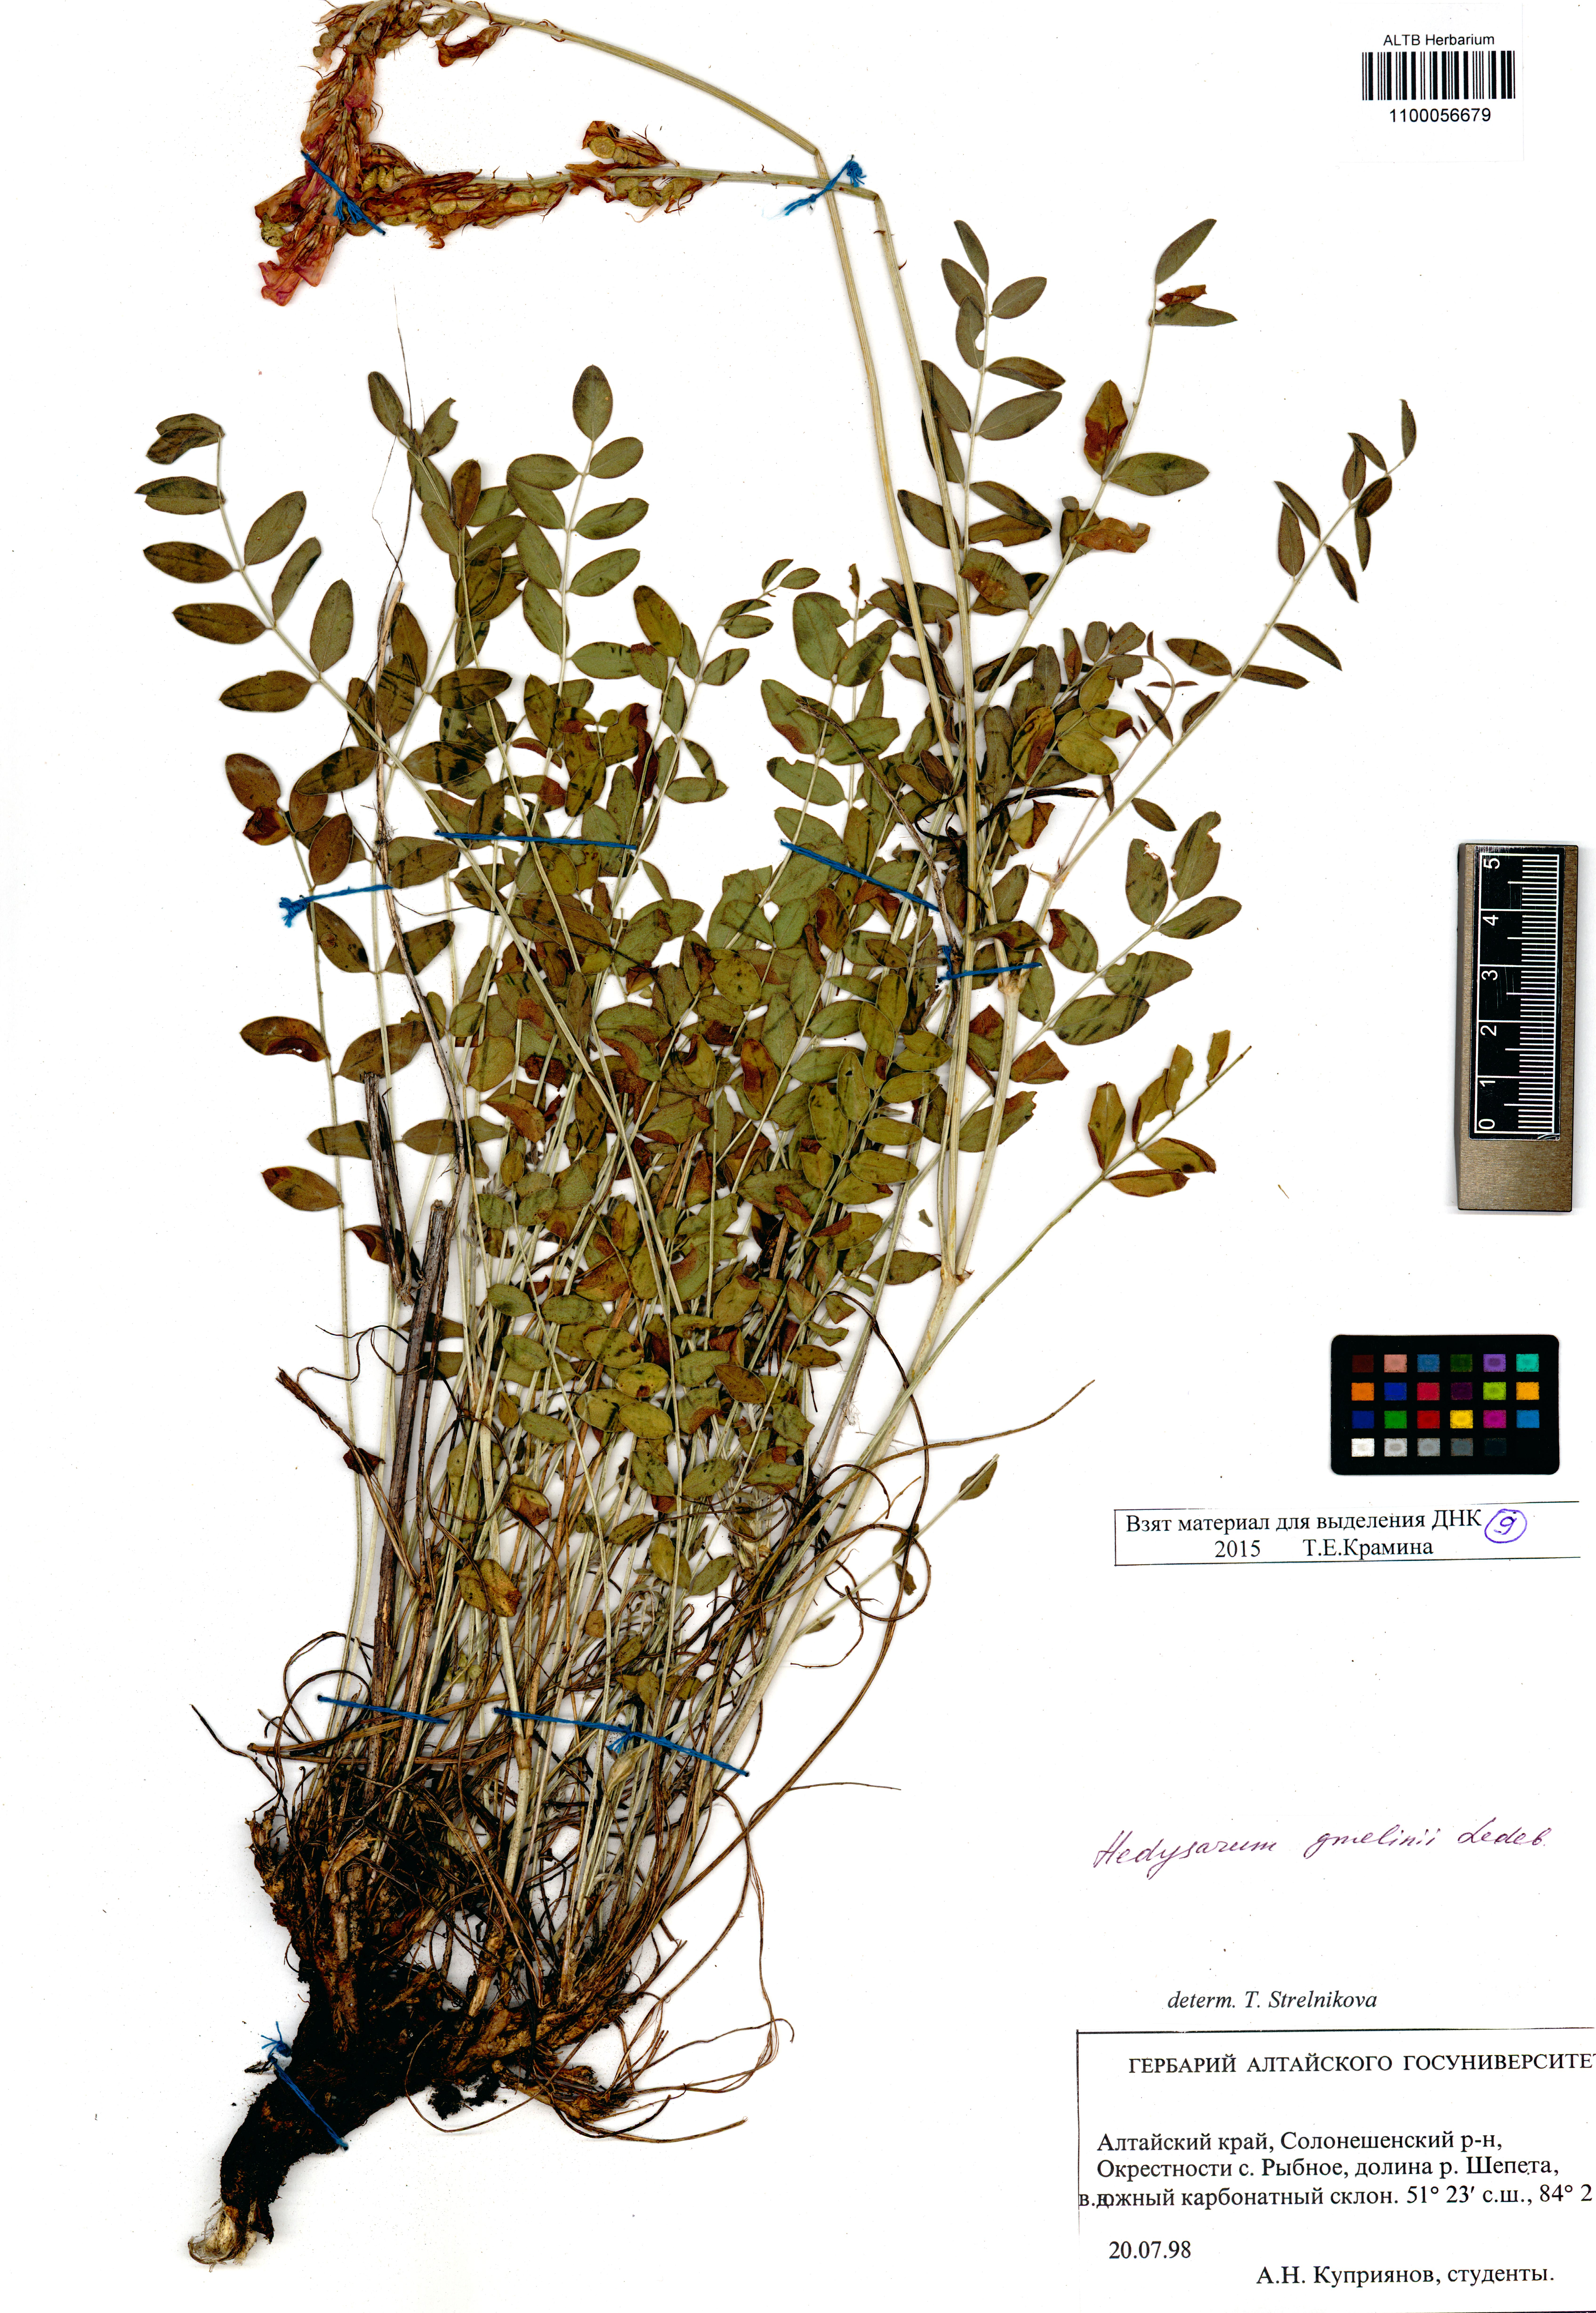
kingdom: Plantae
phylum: Tracheophyta
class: Magnoliopsida
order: Fabales
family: Fabaceae
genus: Hedysarum
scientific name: Hedysarum gmelinii
